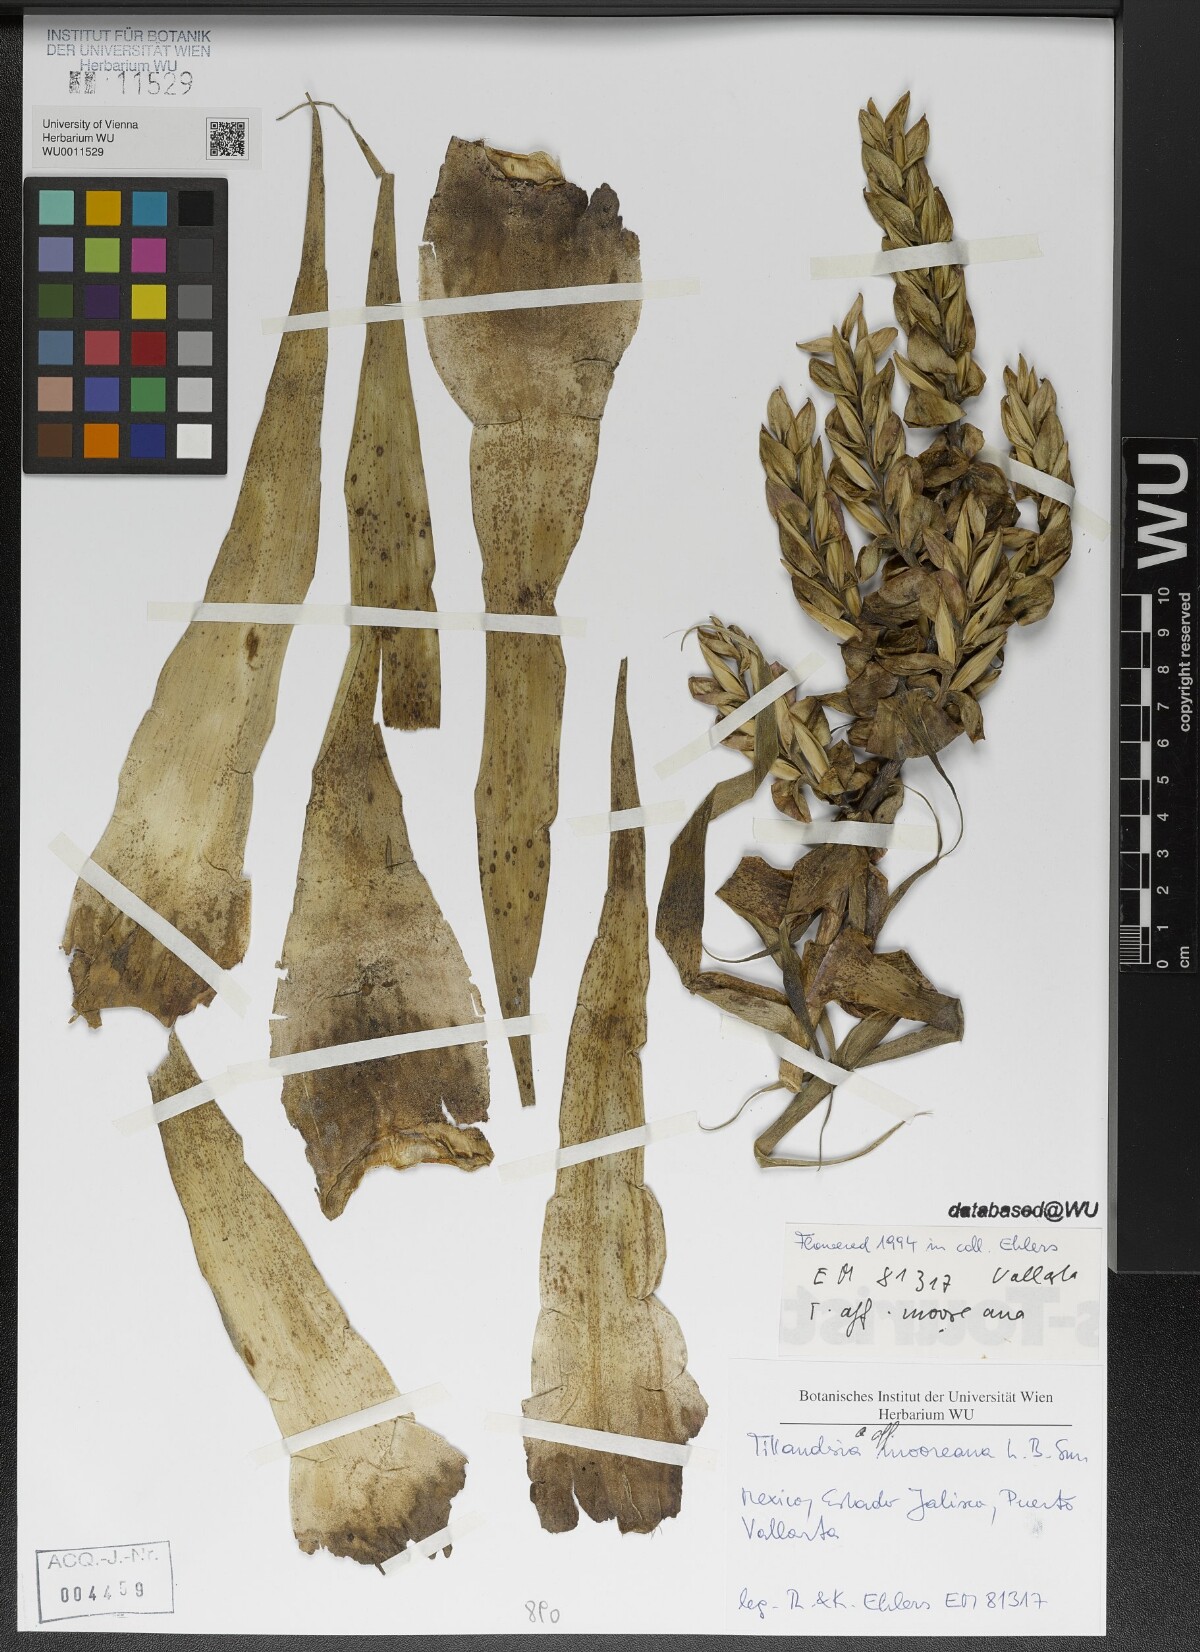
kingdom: Plantae
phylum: Tracheophyta
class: Liliopsida
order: Poales
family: Bromeliaceae
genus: Tillandsia
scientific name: Tillandsia mooreana
